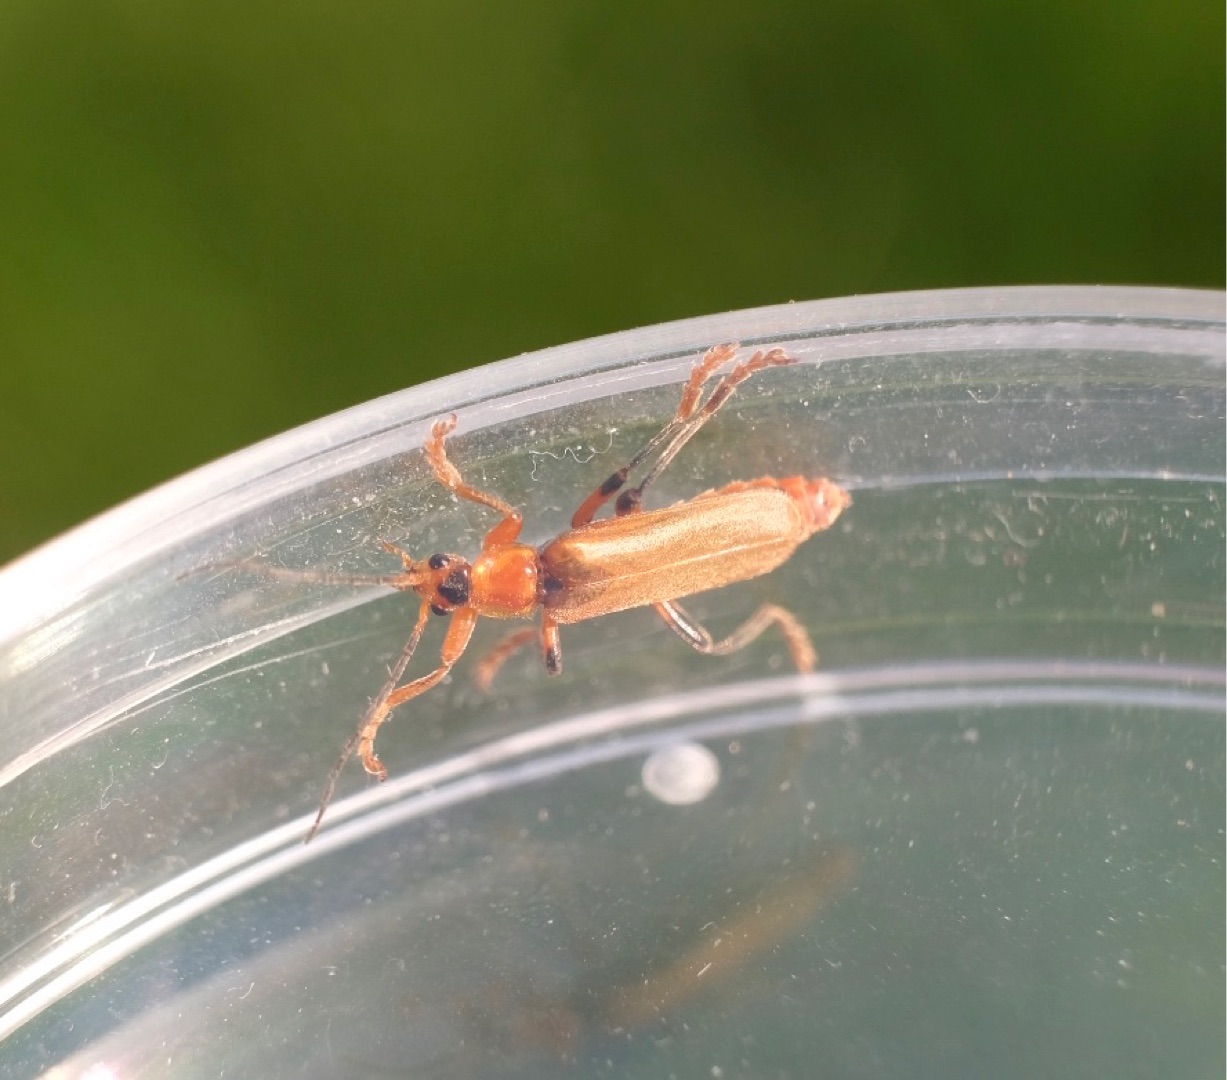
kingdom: Animalia
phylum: Arthropoda
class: Insecta
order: Coleoptera
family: Cantharidae
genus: Cantharis
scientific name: Cantharis livida
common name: Gul blødvinge
